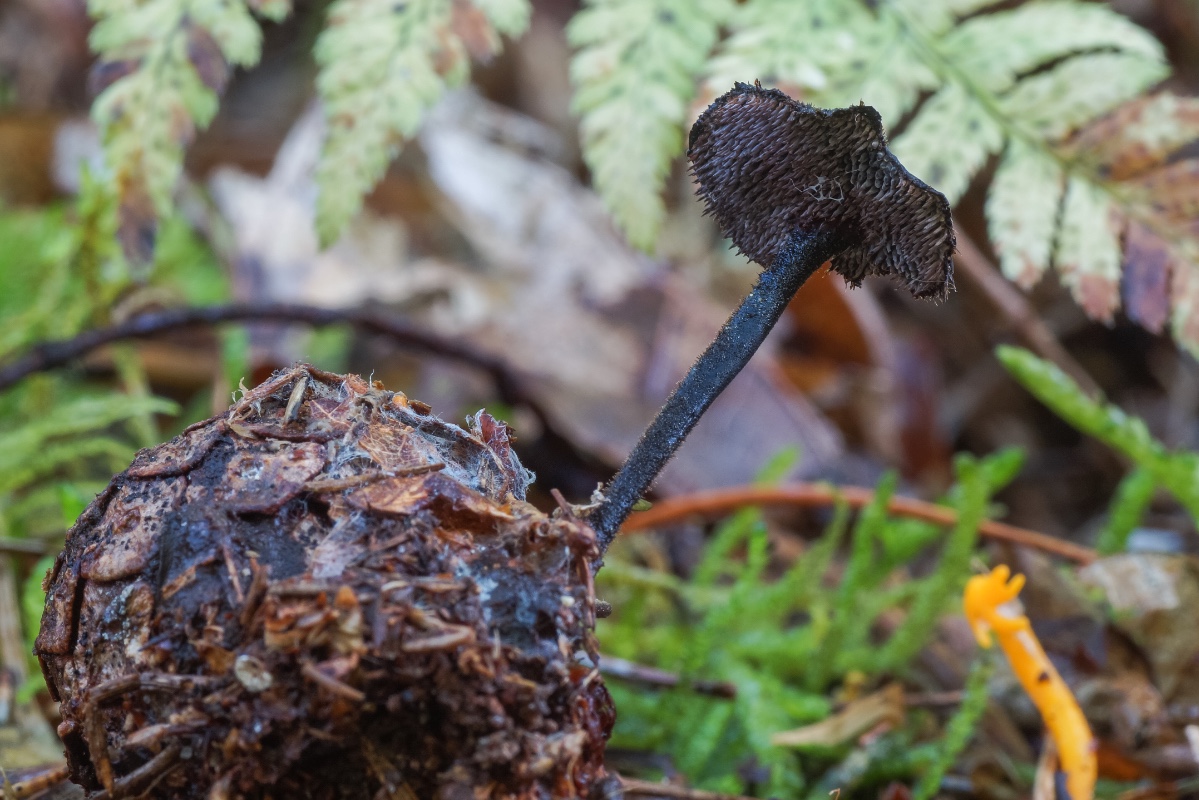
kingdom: Fungi
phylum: Basidiomycota
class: Agaricomycetes
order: Russulales
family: Auriscalpiaceae
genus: Auriscalpium
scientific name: Auriscalpium vulgare
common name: koglepigsvamp
